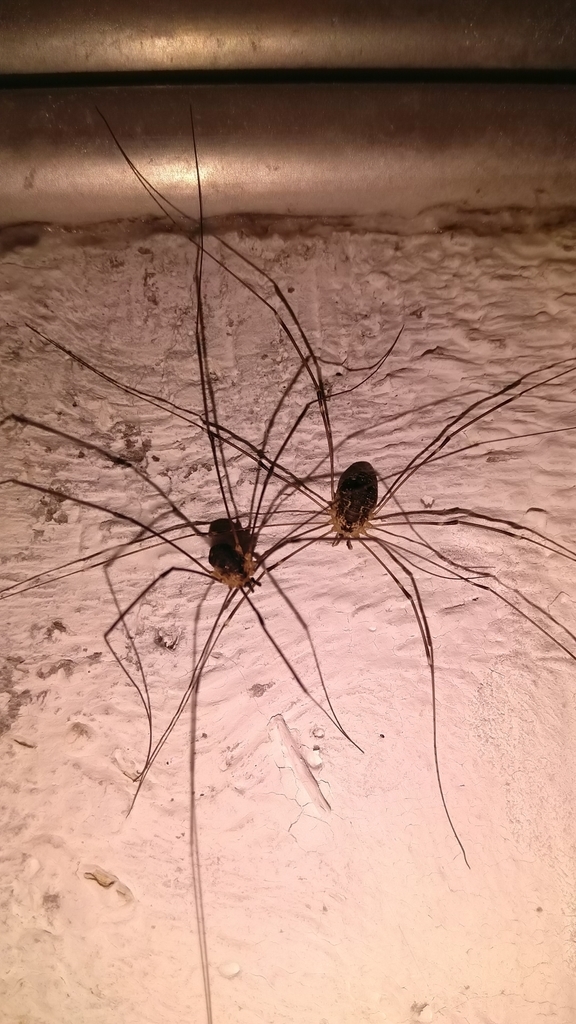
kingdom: Animalia
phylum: Arthropoda
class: Arachnida
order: Opiliones
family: Sclerosomatidae
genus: Leiobunum
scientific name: Leiobunum gracile
